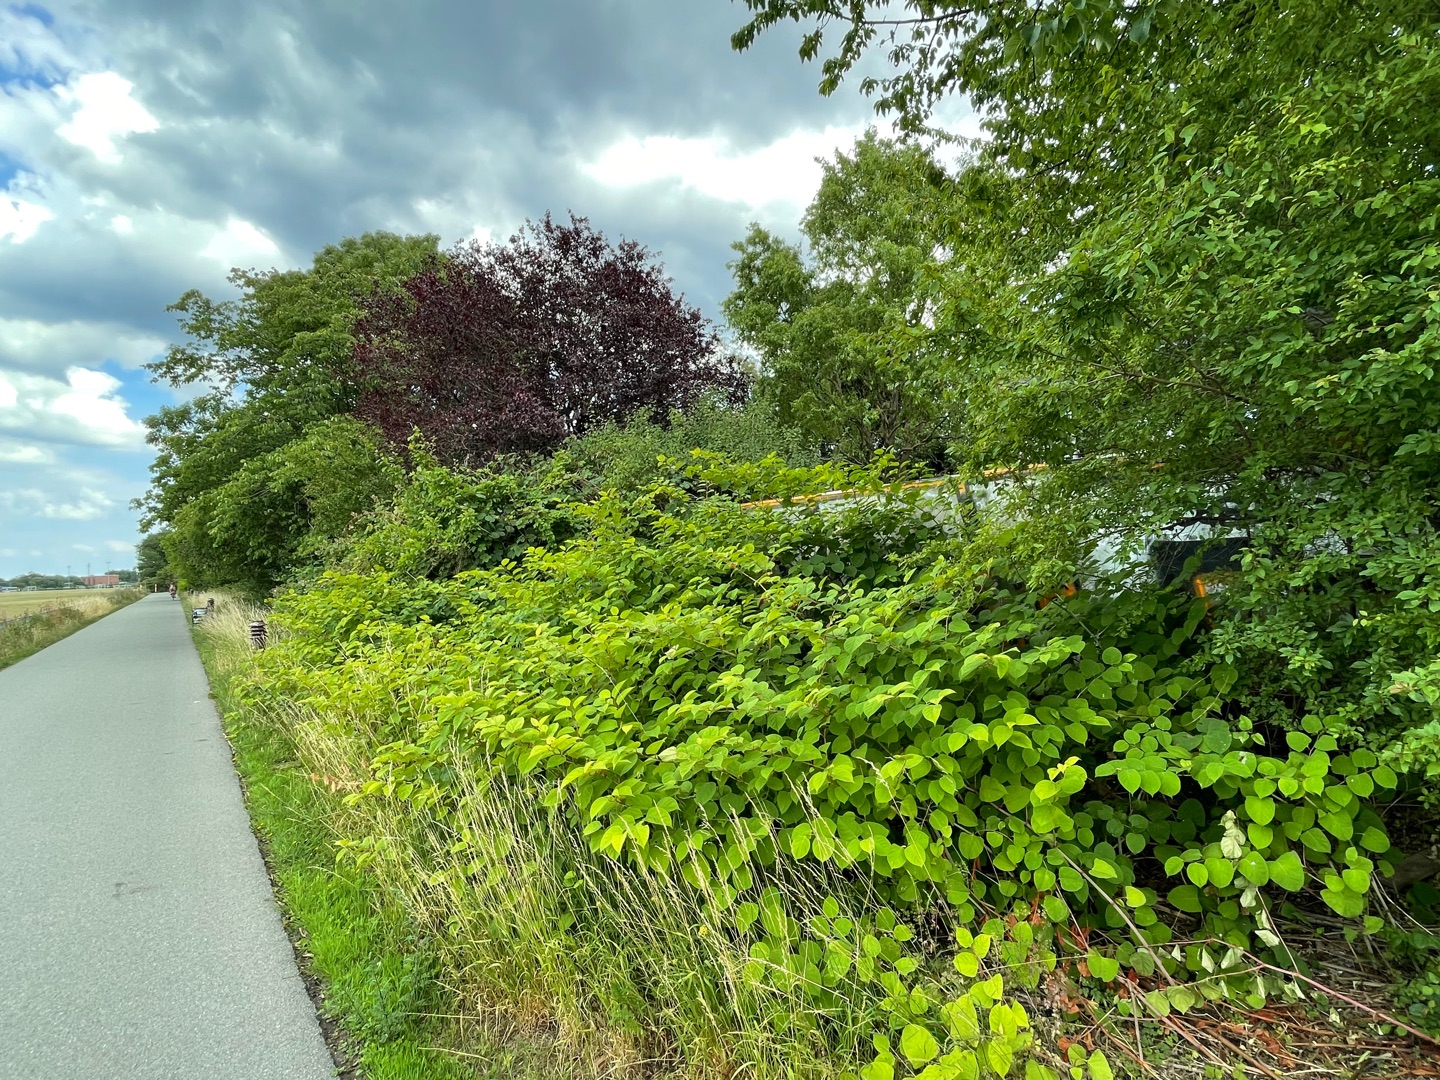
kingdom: Plantae
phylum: Tracheophyta
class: Magnoliopsida
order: Caryophyllales
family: Polygonaceae
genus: Reynoutria
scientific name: Reynoutria japonica
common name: Japan-pileurt
